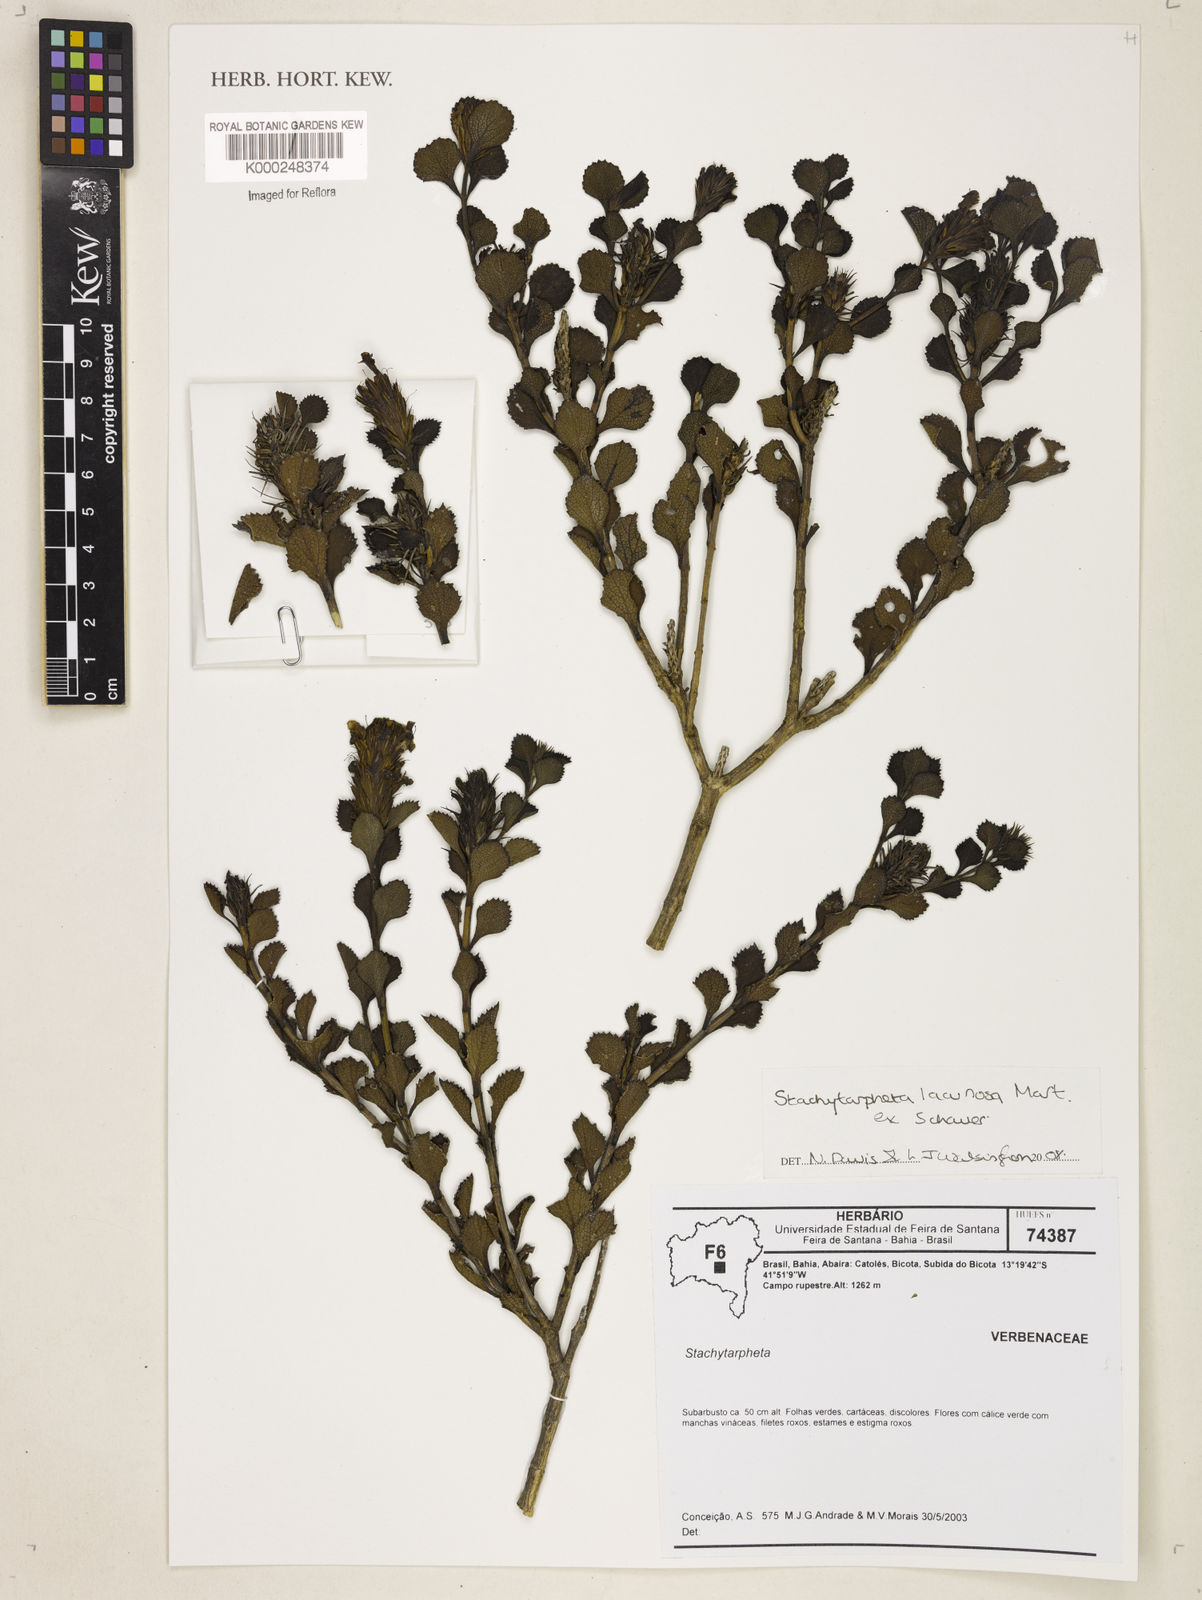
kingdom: Plantae
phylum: Tracheophyta
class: Magnoliopsida
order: Lamiales
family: Verbenaceae
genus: Stachytarpheta
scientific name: Stachytarpheta lacunosa
